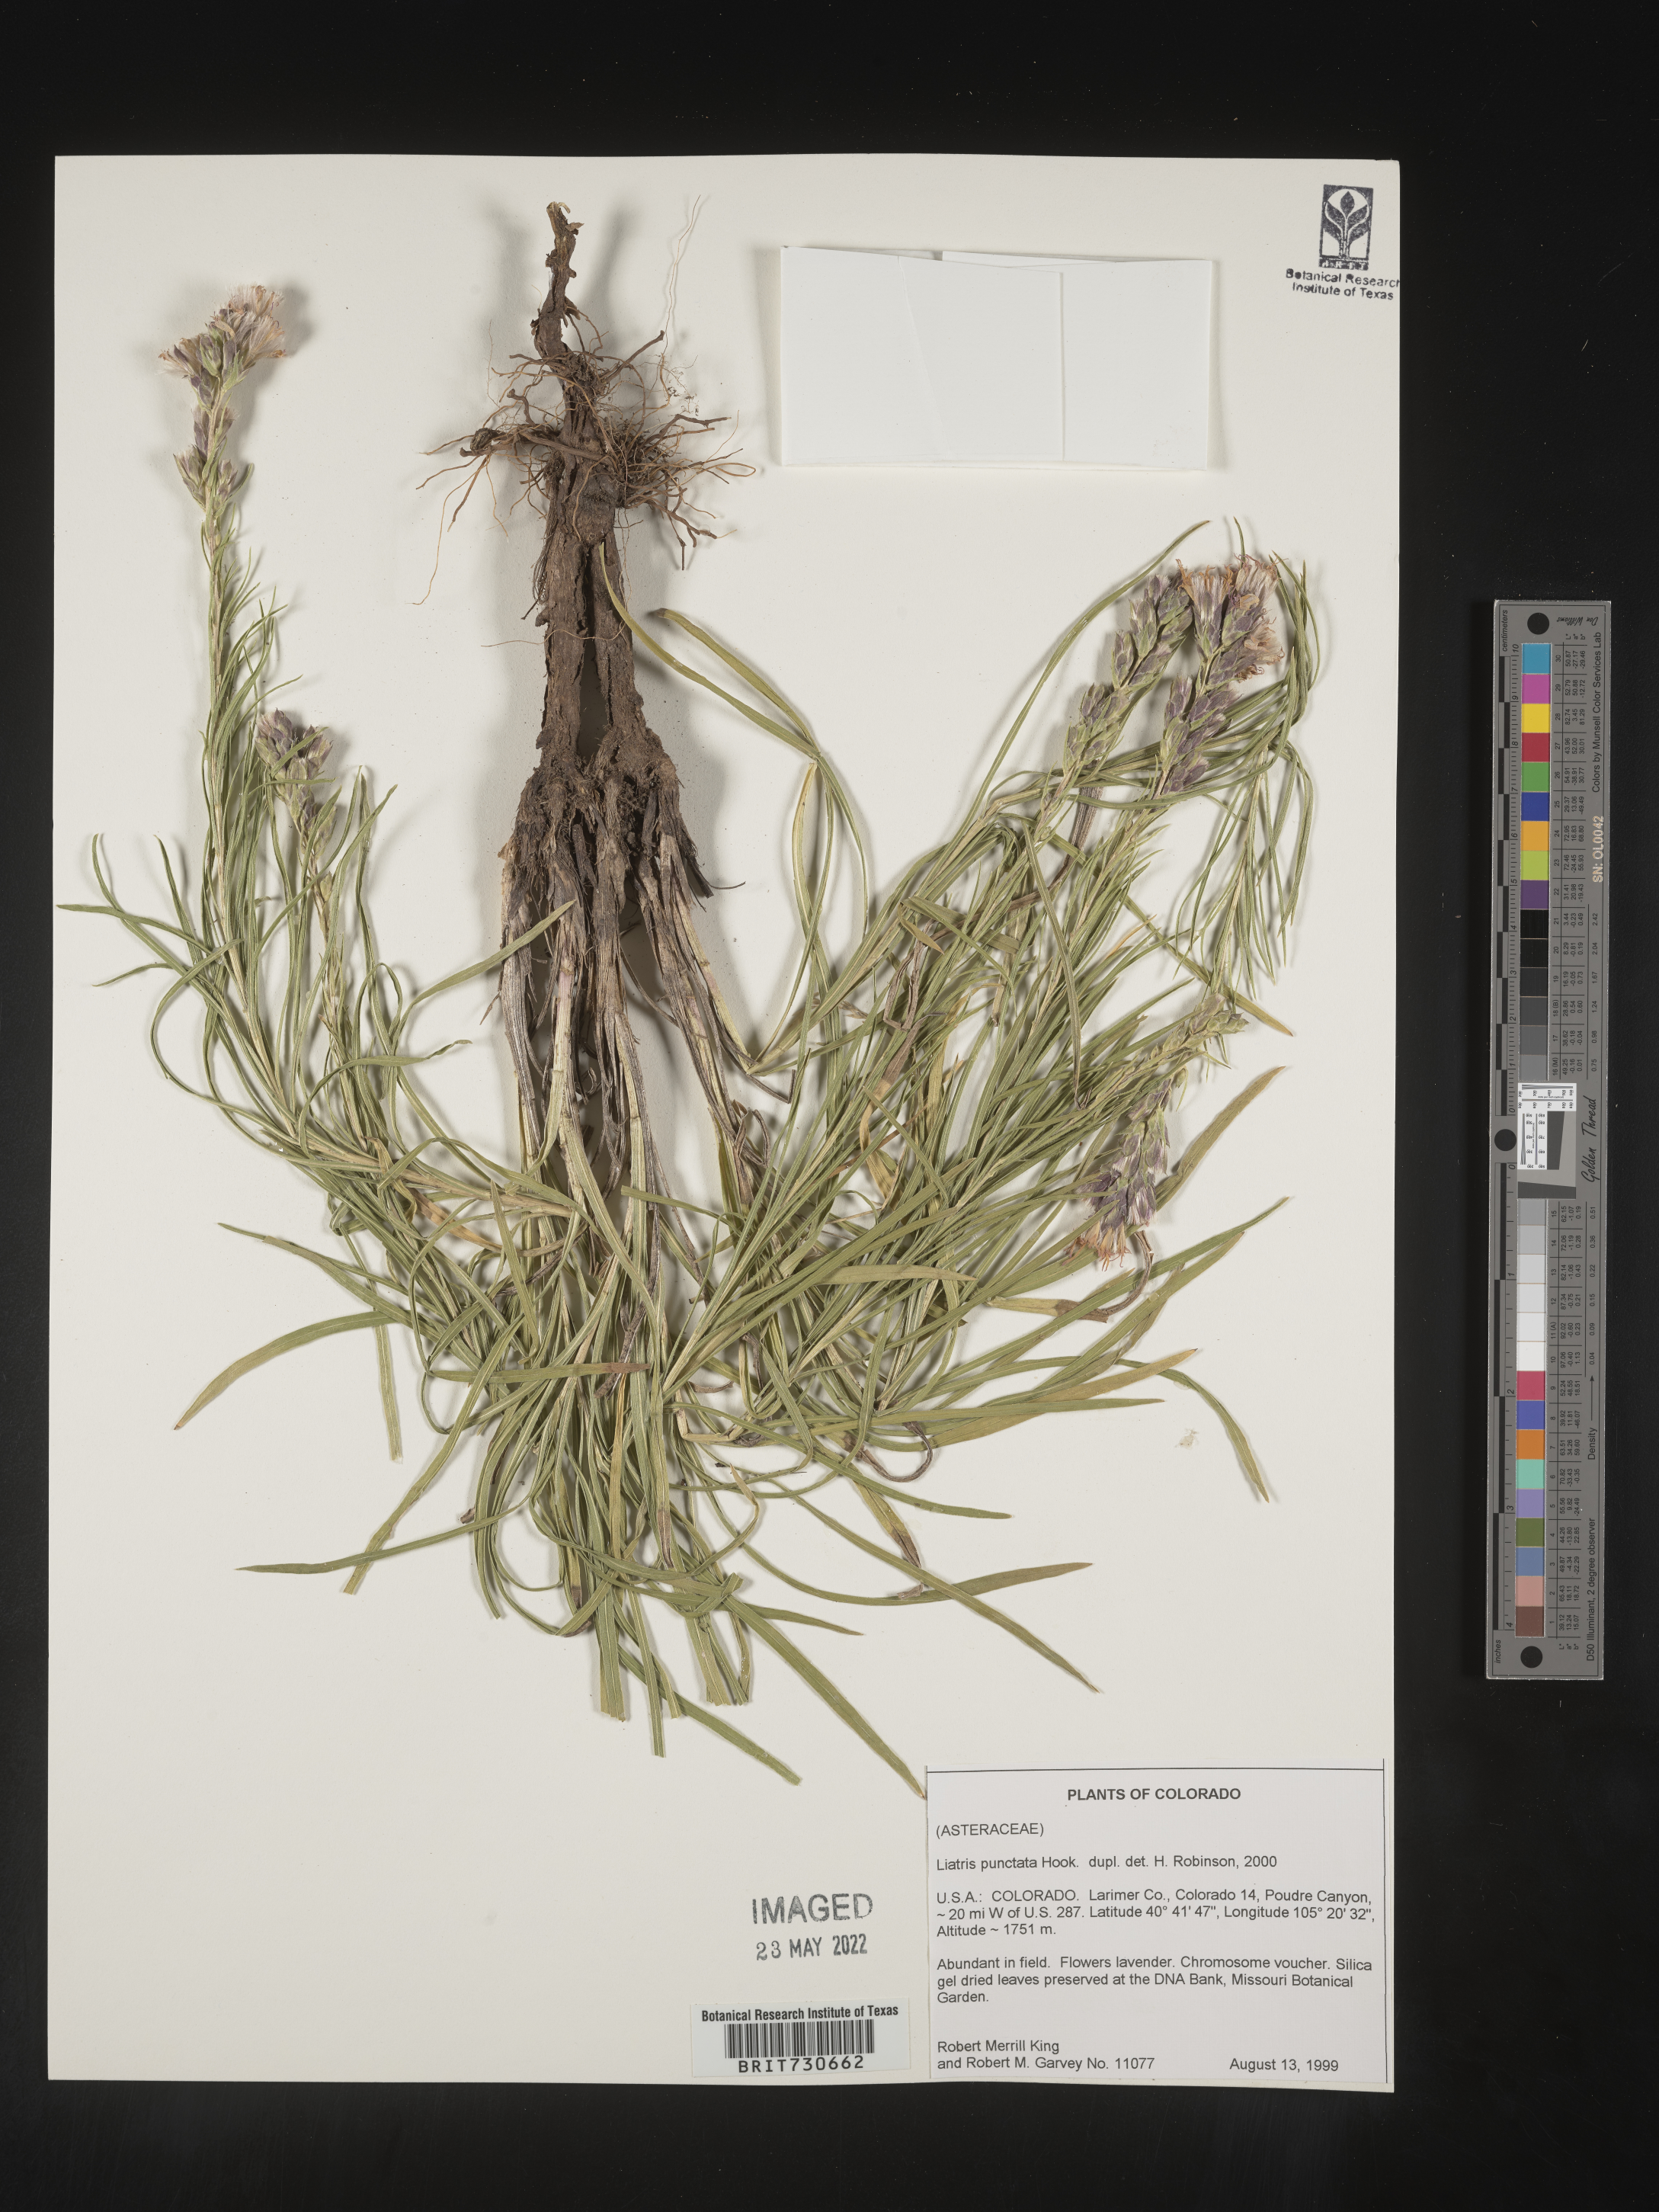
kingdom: Plantae
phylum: Tracheophyta
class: Magnoliopsida
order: Asterales
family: Asteraceae
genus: Liatris
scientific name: Liatris punctata
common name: Dotted gayfeather
